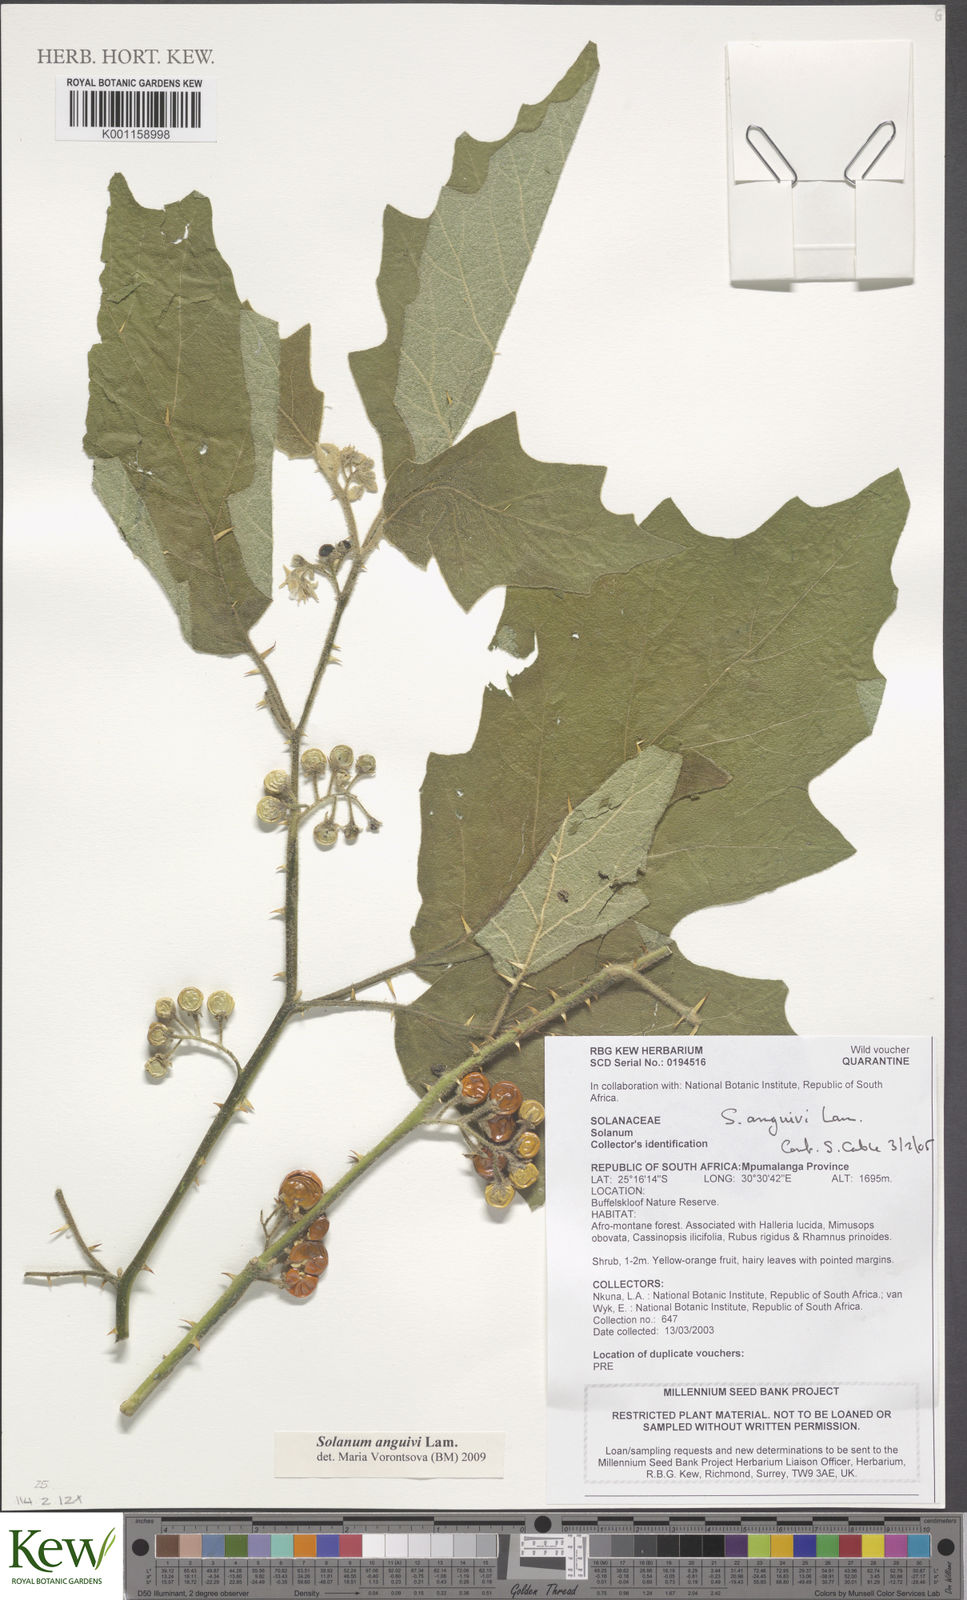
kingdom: Plantae
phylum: Tracheophyta
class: Magnoliopsida
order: Solanales
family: Solanaceae
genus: Solanum
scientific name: Solanum anguivi
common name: Forest bitterberry
